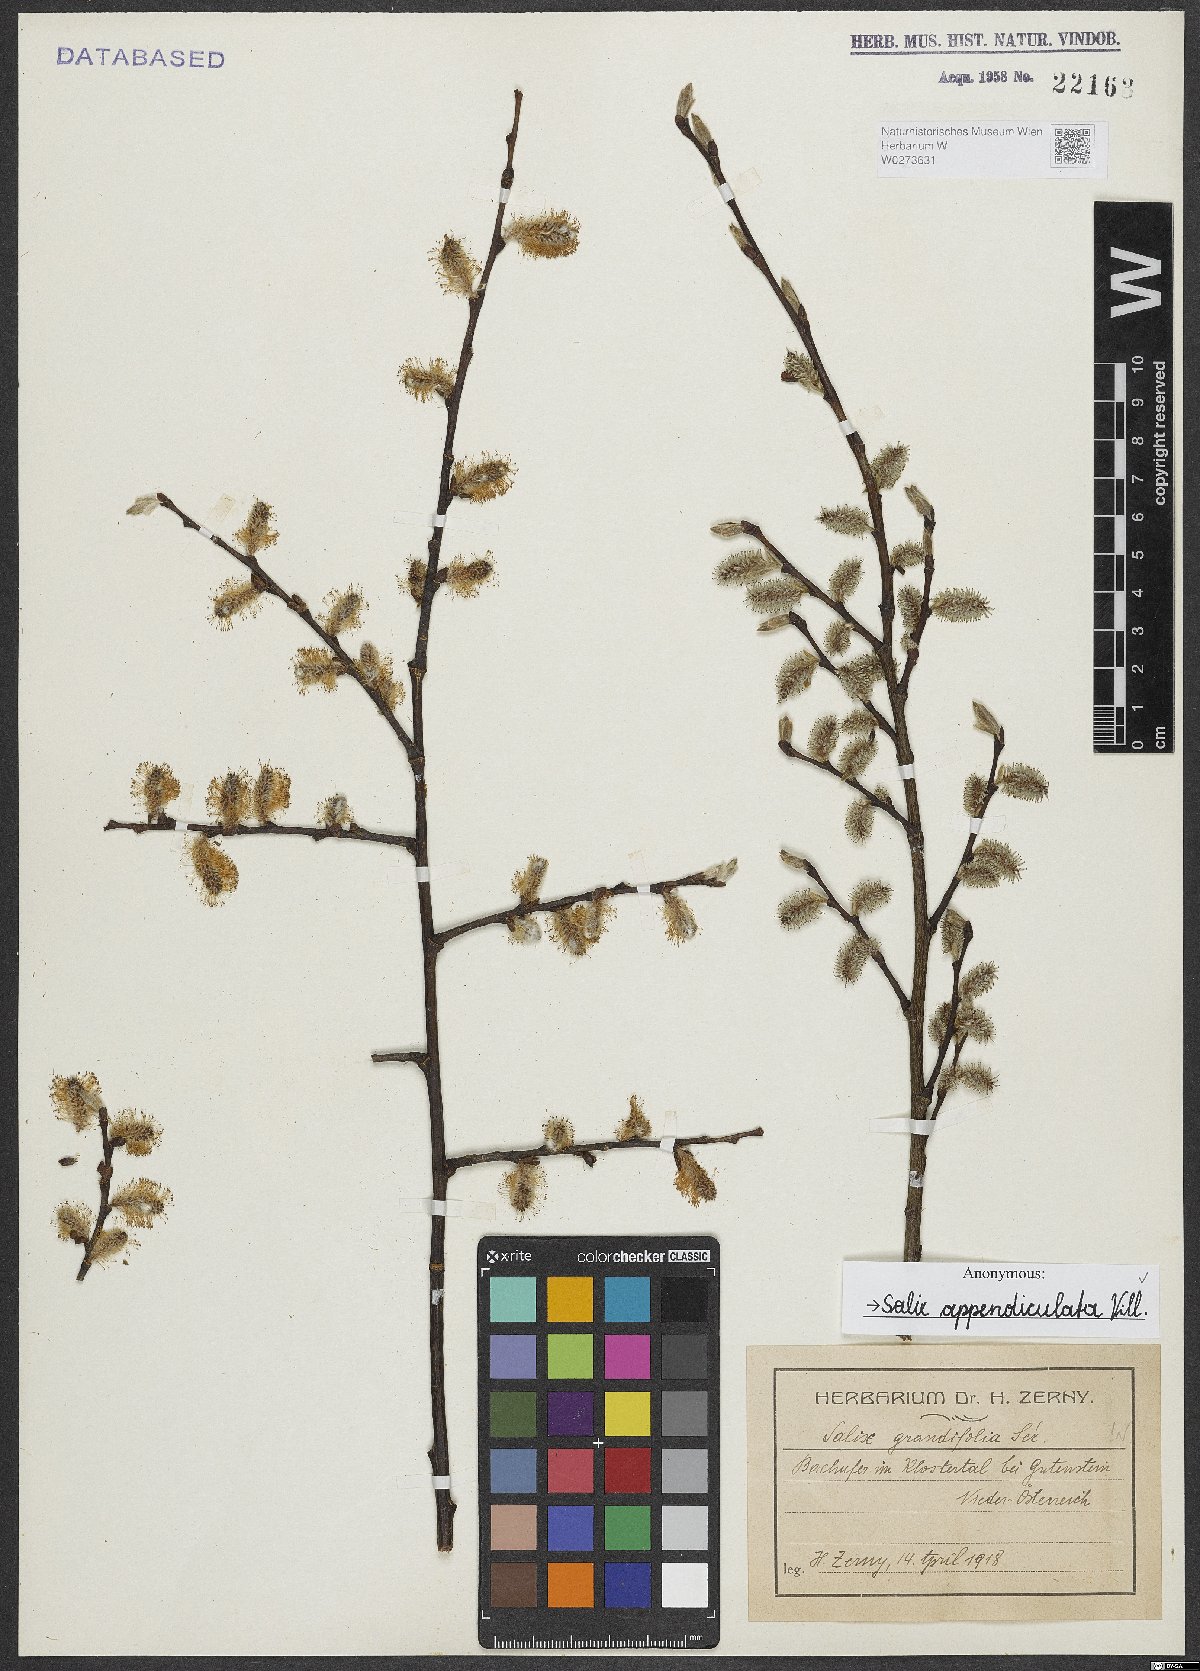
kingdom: Plantae
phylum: Tracheophyta
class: Magnoliopsida
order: Malpighiales
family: Salicaceae
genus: Salix
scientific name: Salix appendiculata
